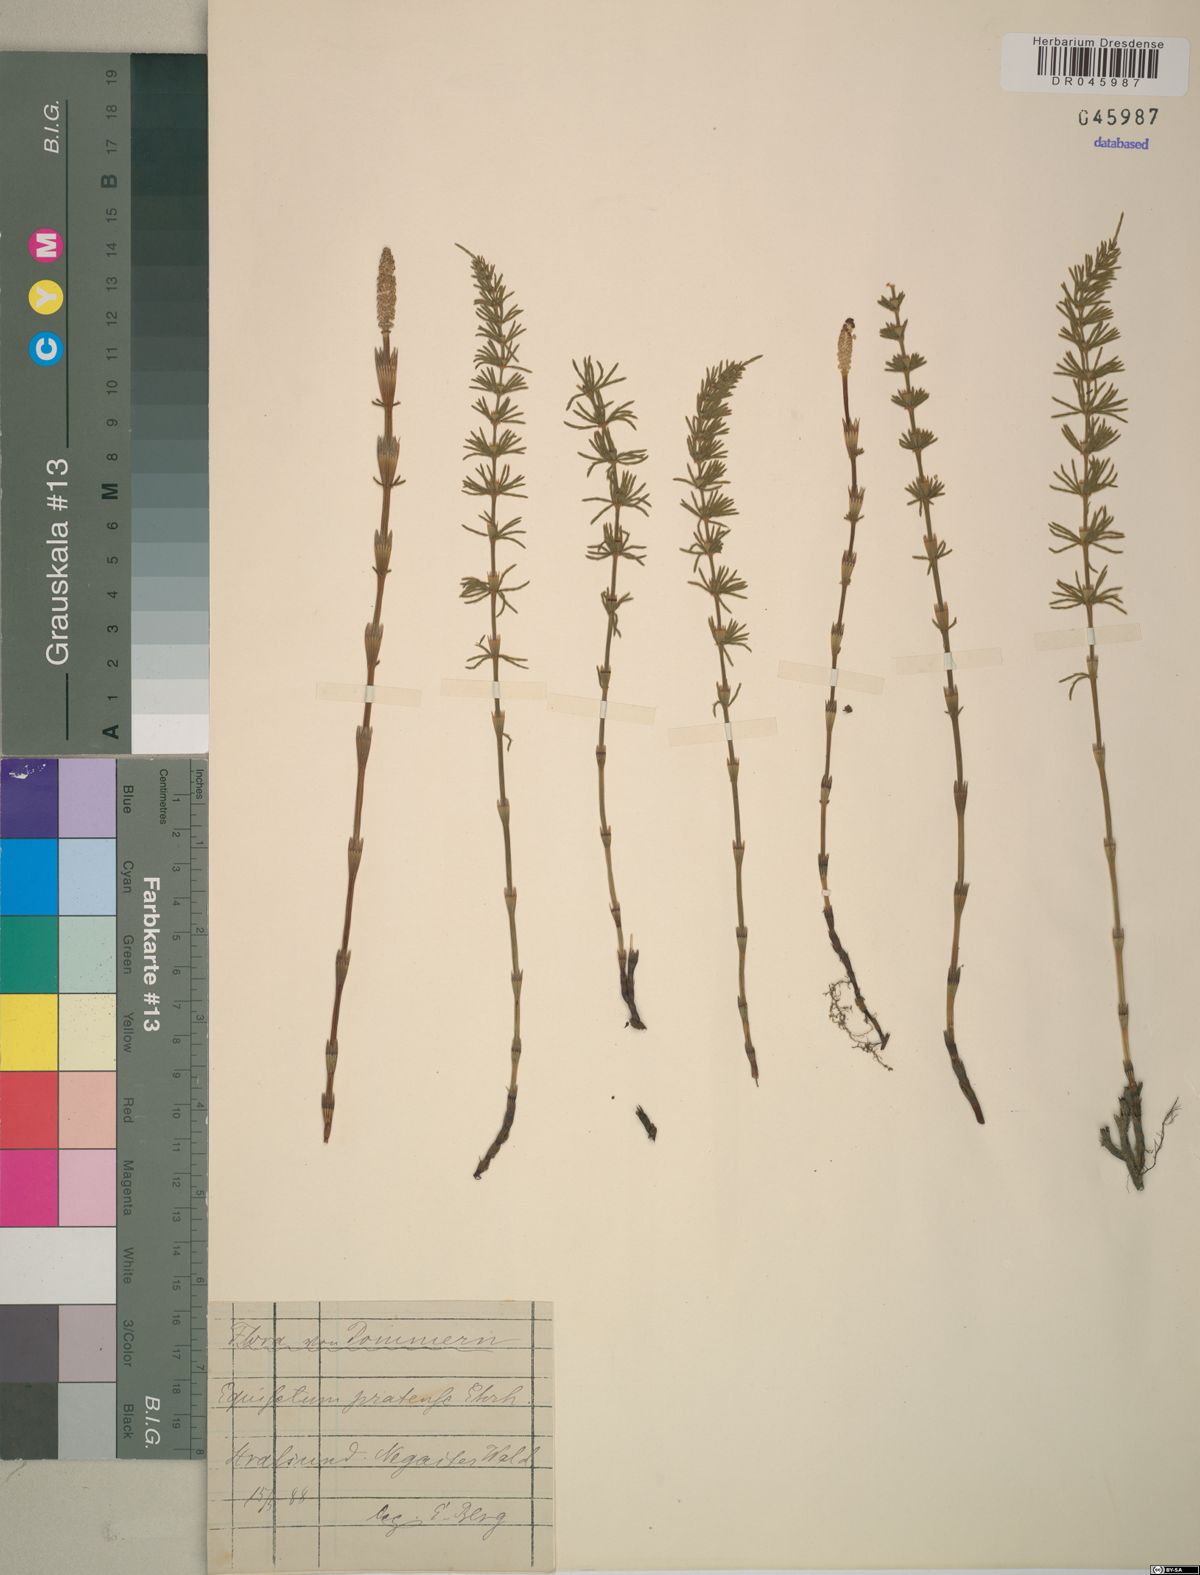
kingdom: Plantae
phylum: Tracheophyta
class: Polypodiopsida
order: Equisetales
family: Equisetaceae
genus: Equisetum
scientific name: Equisetum pratense
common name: Meadow horsetail
